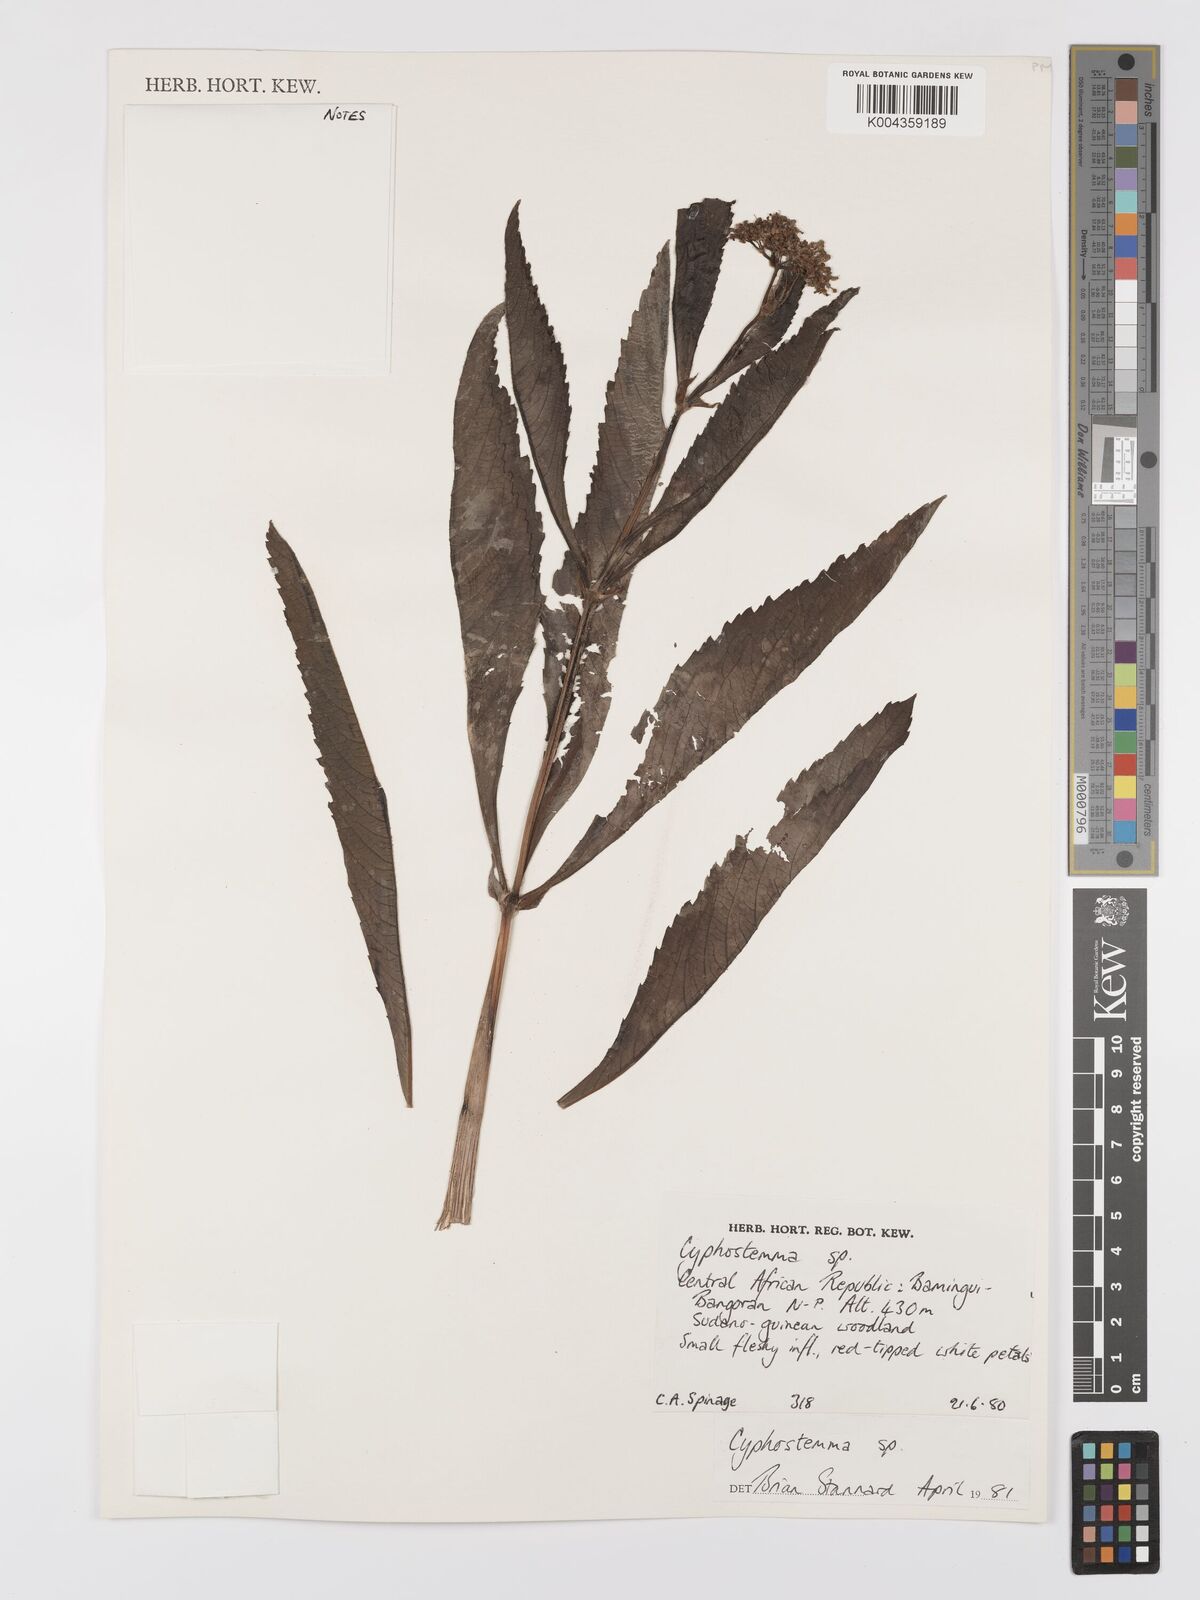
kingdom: Plantae
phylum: Tracheophyta
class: Magnoliopsida
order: Vitales
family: Vitaceae
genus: Cyphostemma
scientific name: Cyphostemma
